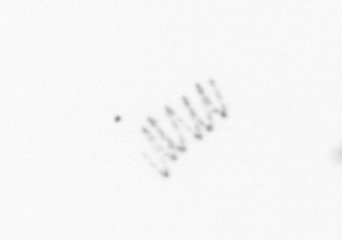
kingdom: Chromista
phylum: Ochrophyta
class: Bacillariophyceae
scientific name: Bacillariophyceae
